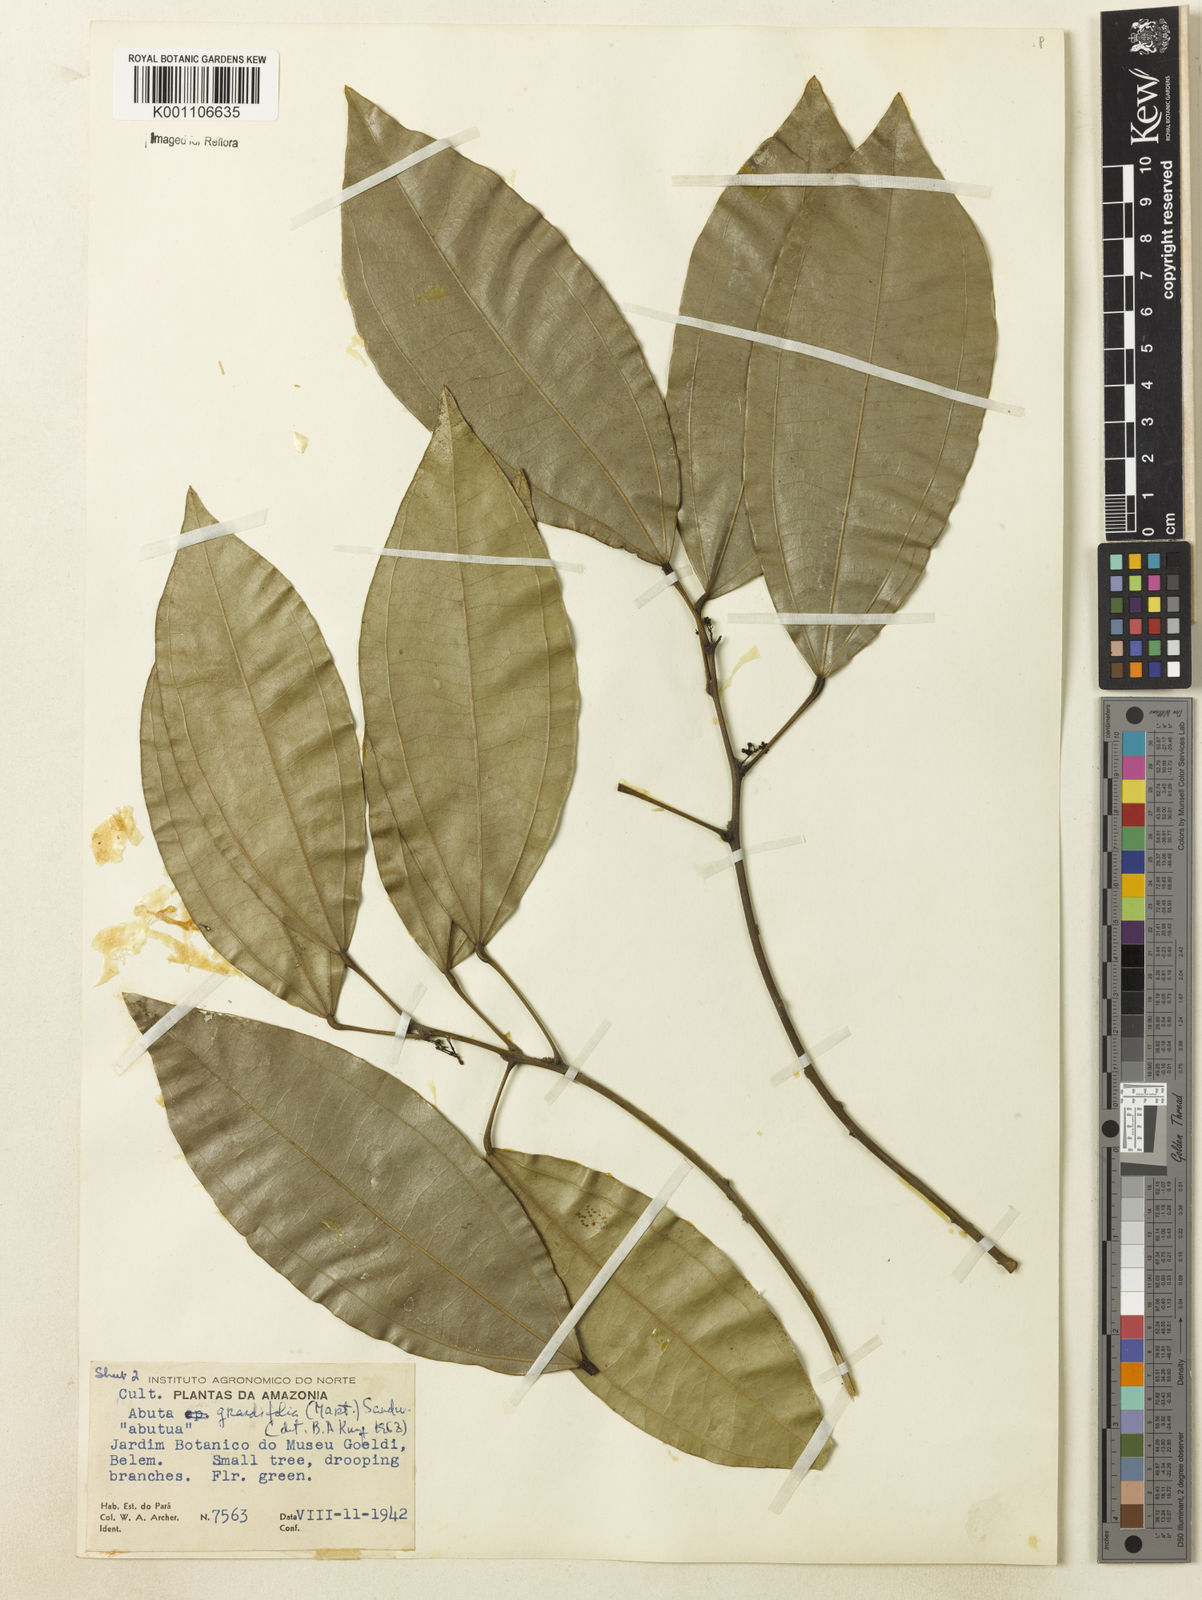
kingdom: Plantae
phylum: Tracheophyta
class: Magnoliopsida
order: Ranunculales
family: Menispermaceae
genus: Abuta
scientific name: Abuta grandifolia
